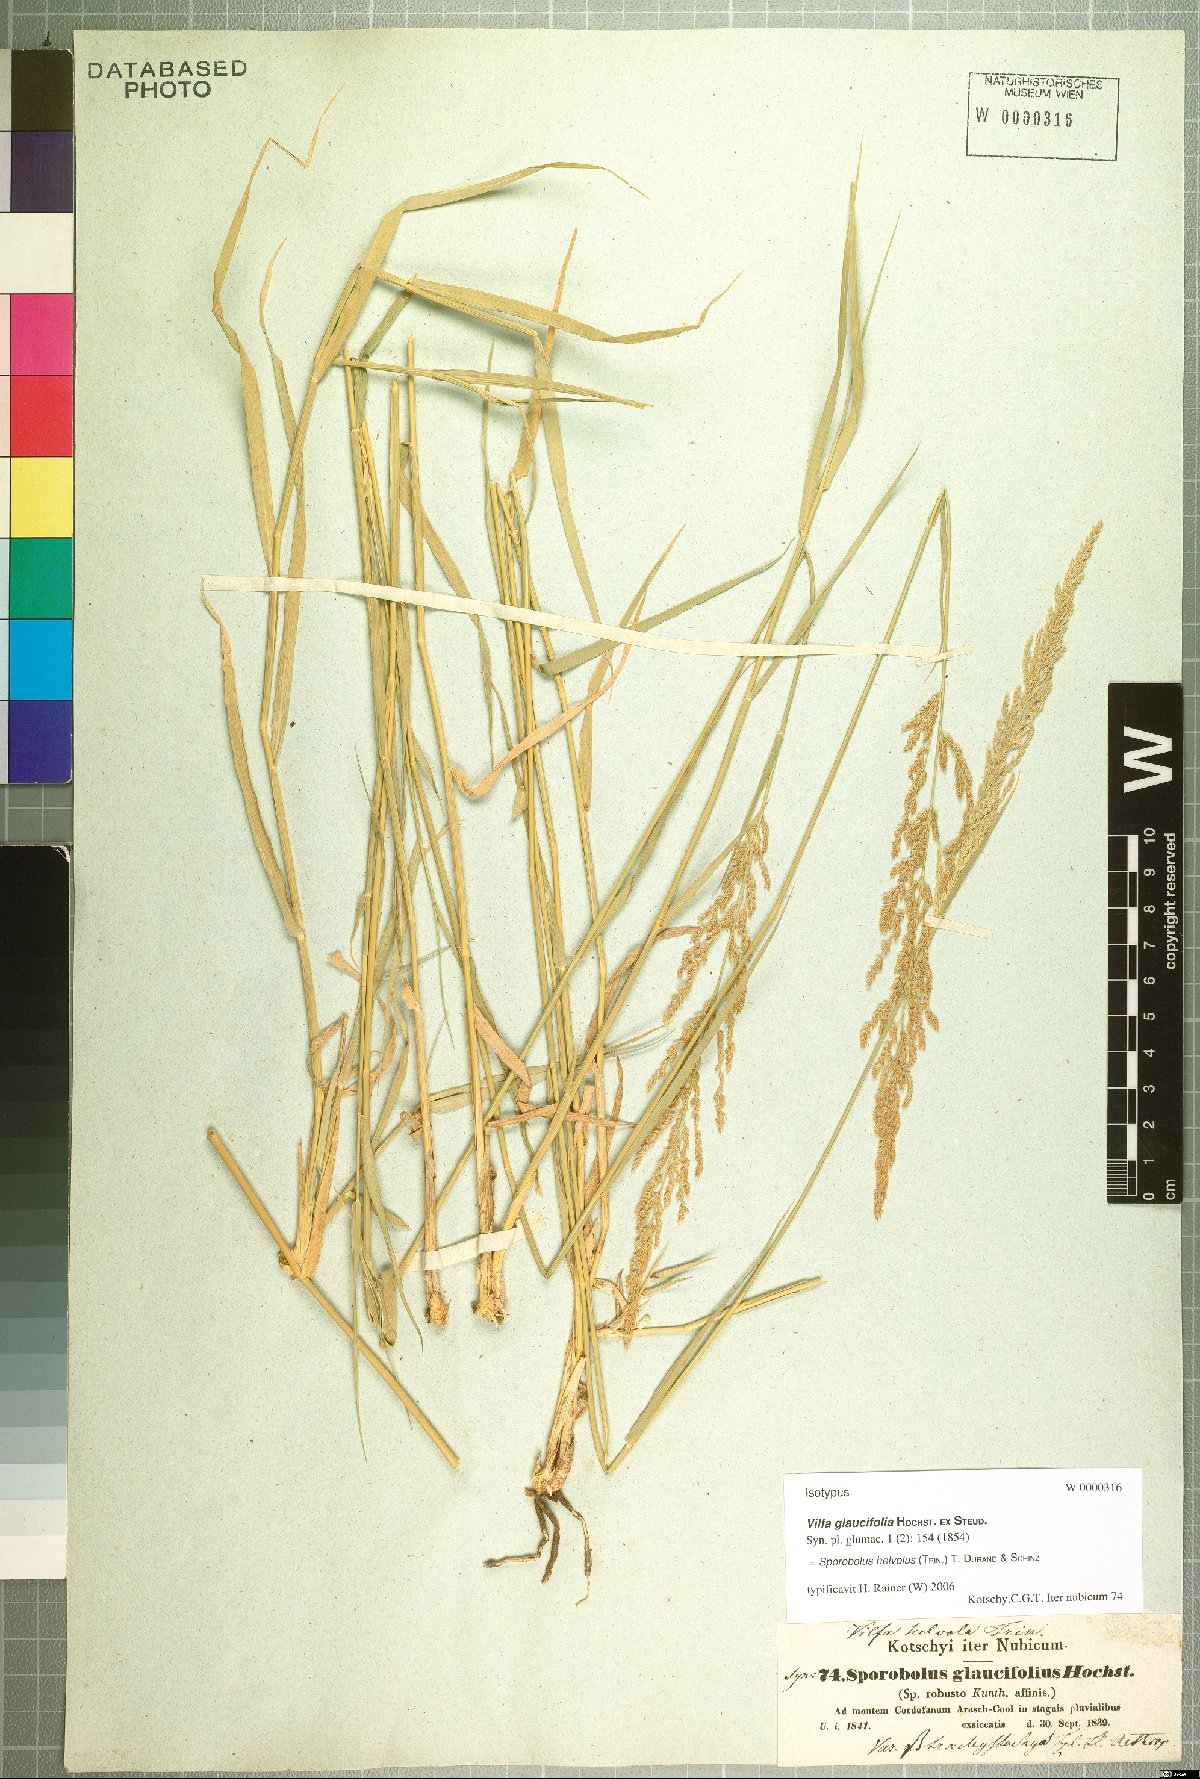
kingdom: Plantae
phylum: Tracheophyta
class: Liliopsida
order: Poales
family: Poaceae
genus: Sporobolus
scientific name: Sporobolus helvolus
